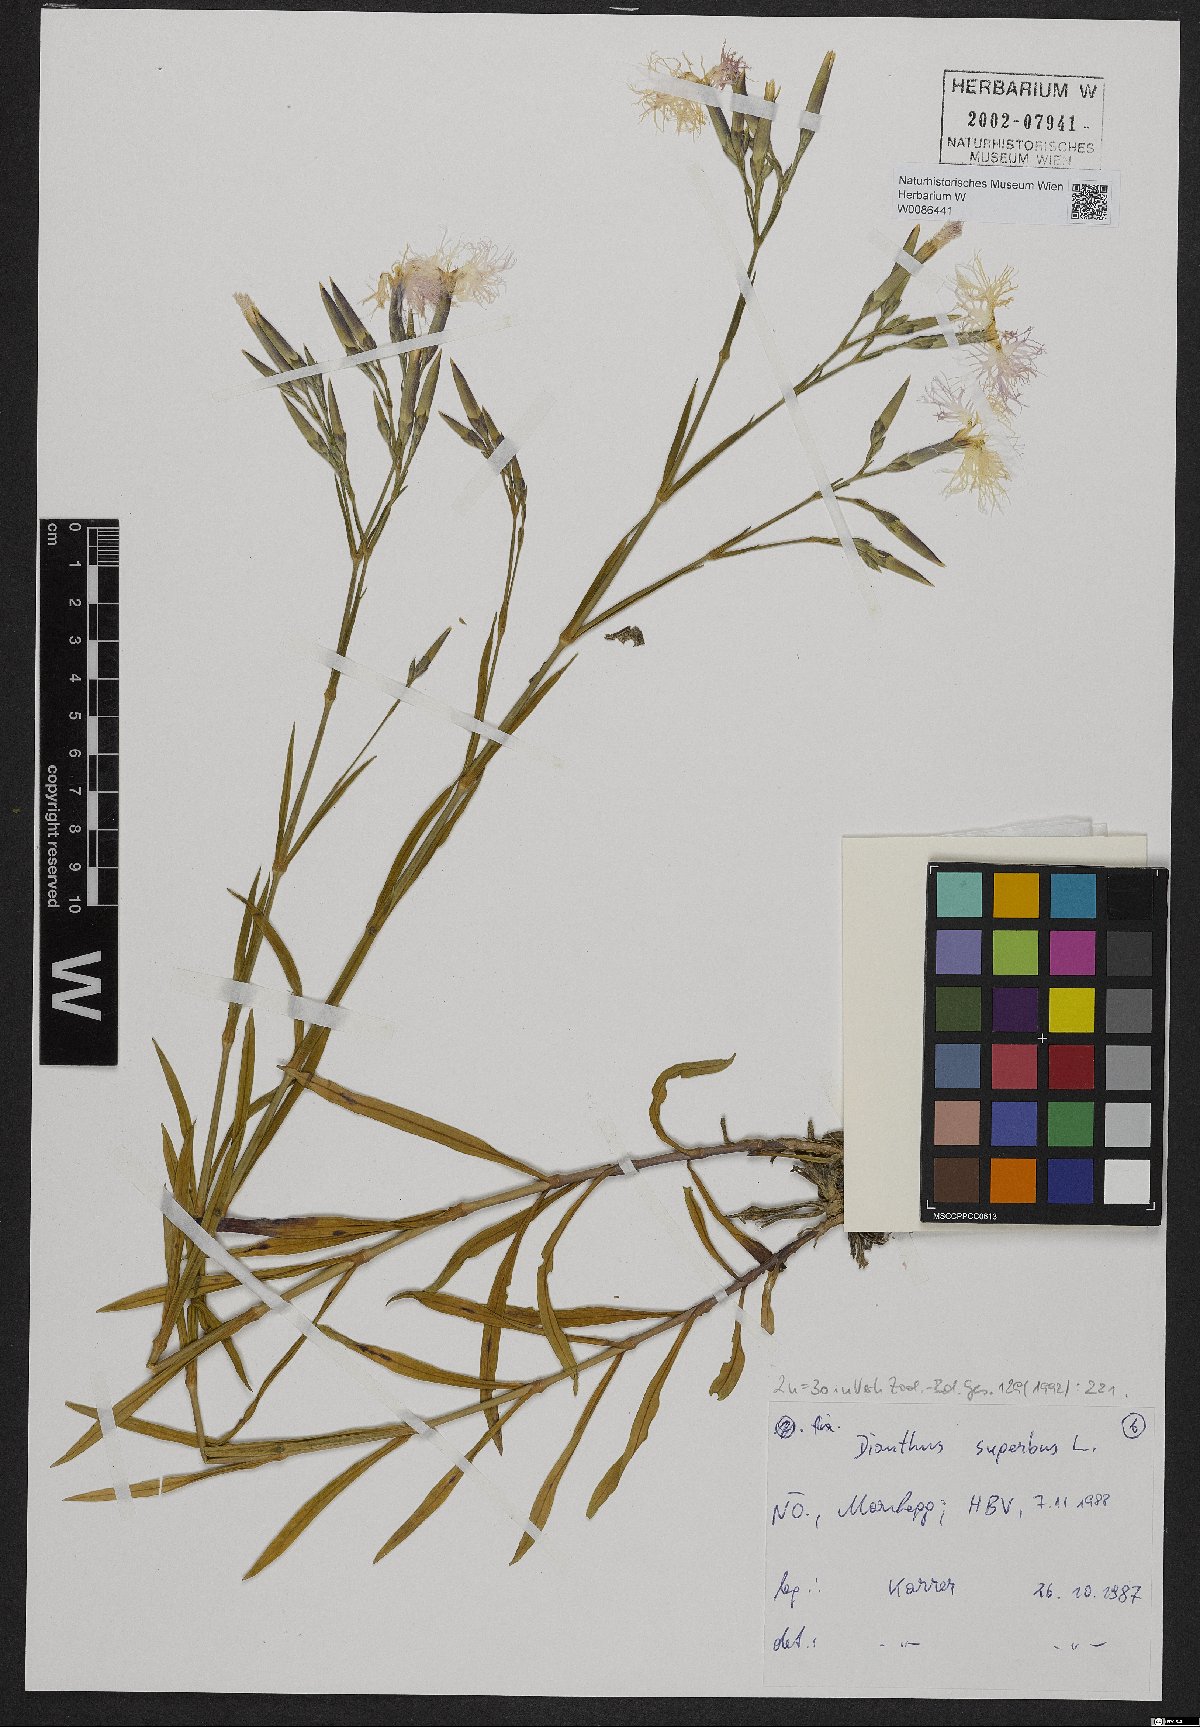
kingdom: Plantae
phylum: Tracheophyta
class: Magnoliopsida
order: Caryophyllales
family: Caryophyllaceae
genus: Dianthus
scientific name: Dianthus superbus
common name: Fringed pink
